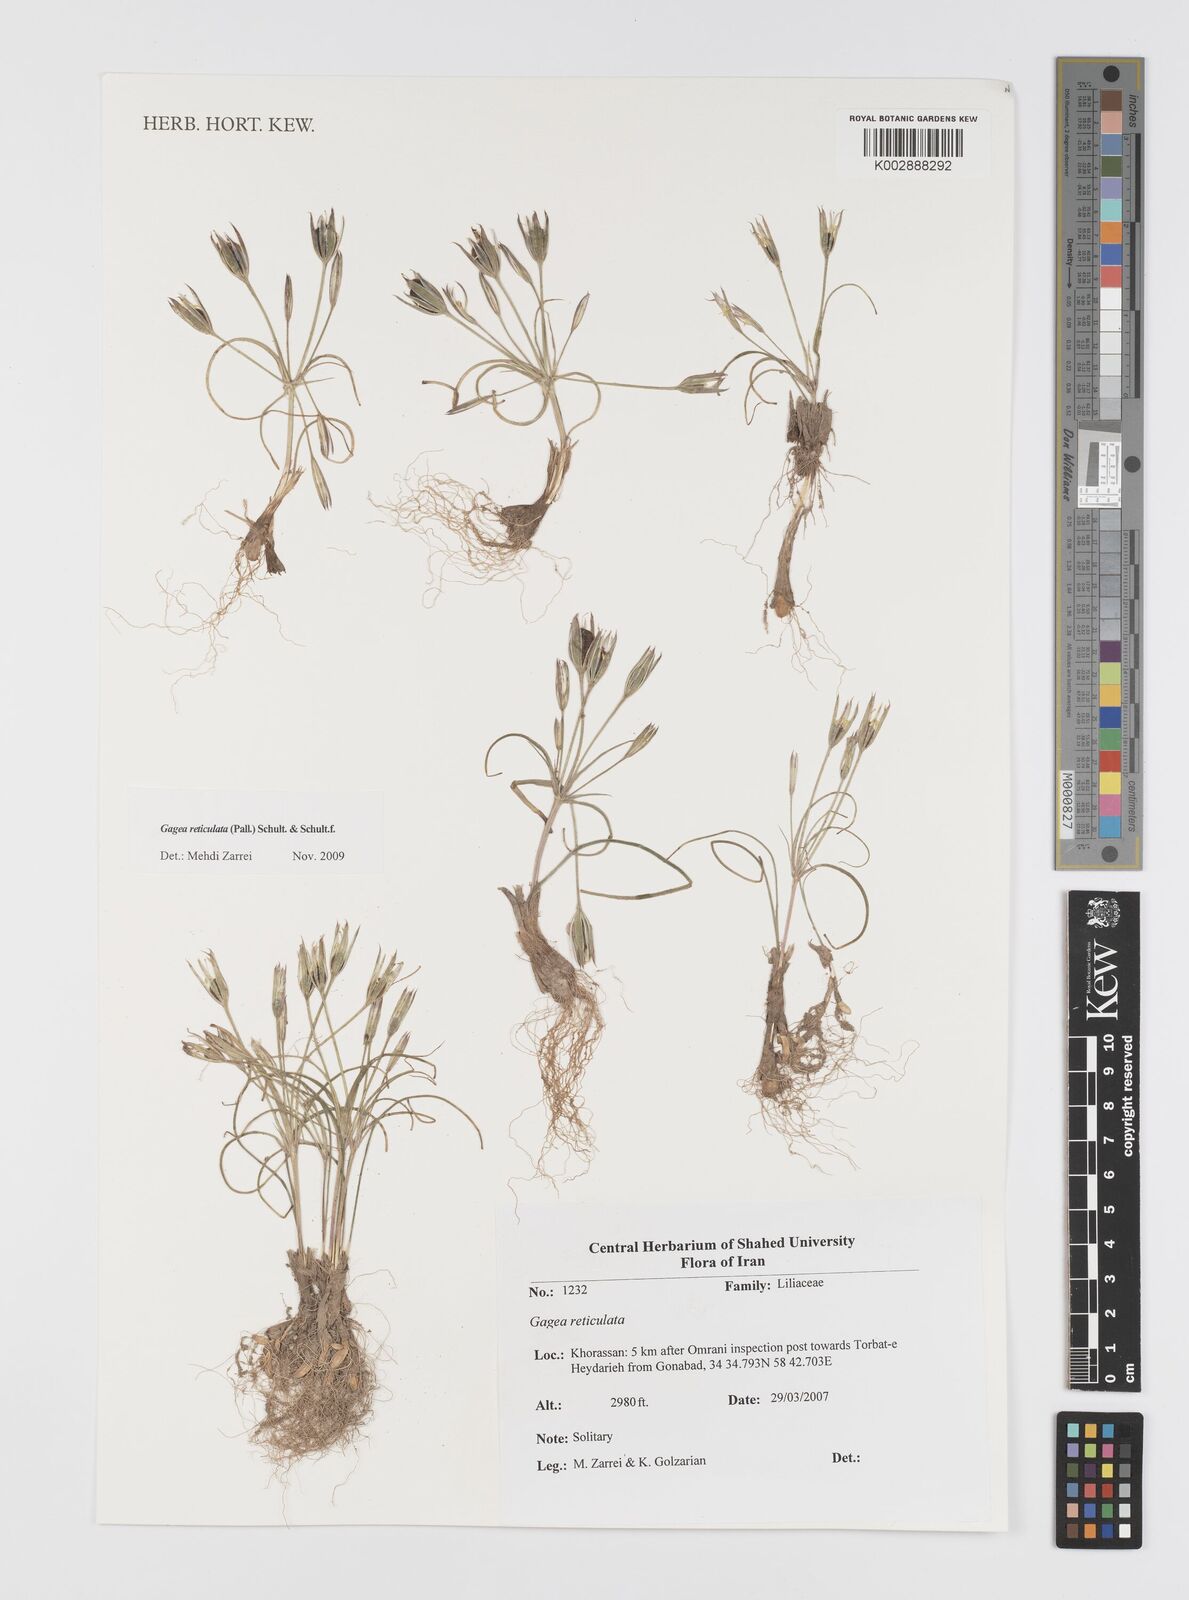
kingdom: Plantae
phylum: Tracheophyta
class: Liliopsida
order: Liliales
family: Liliaceae
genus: Gagea
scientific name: Gagea reticulata
